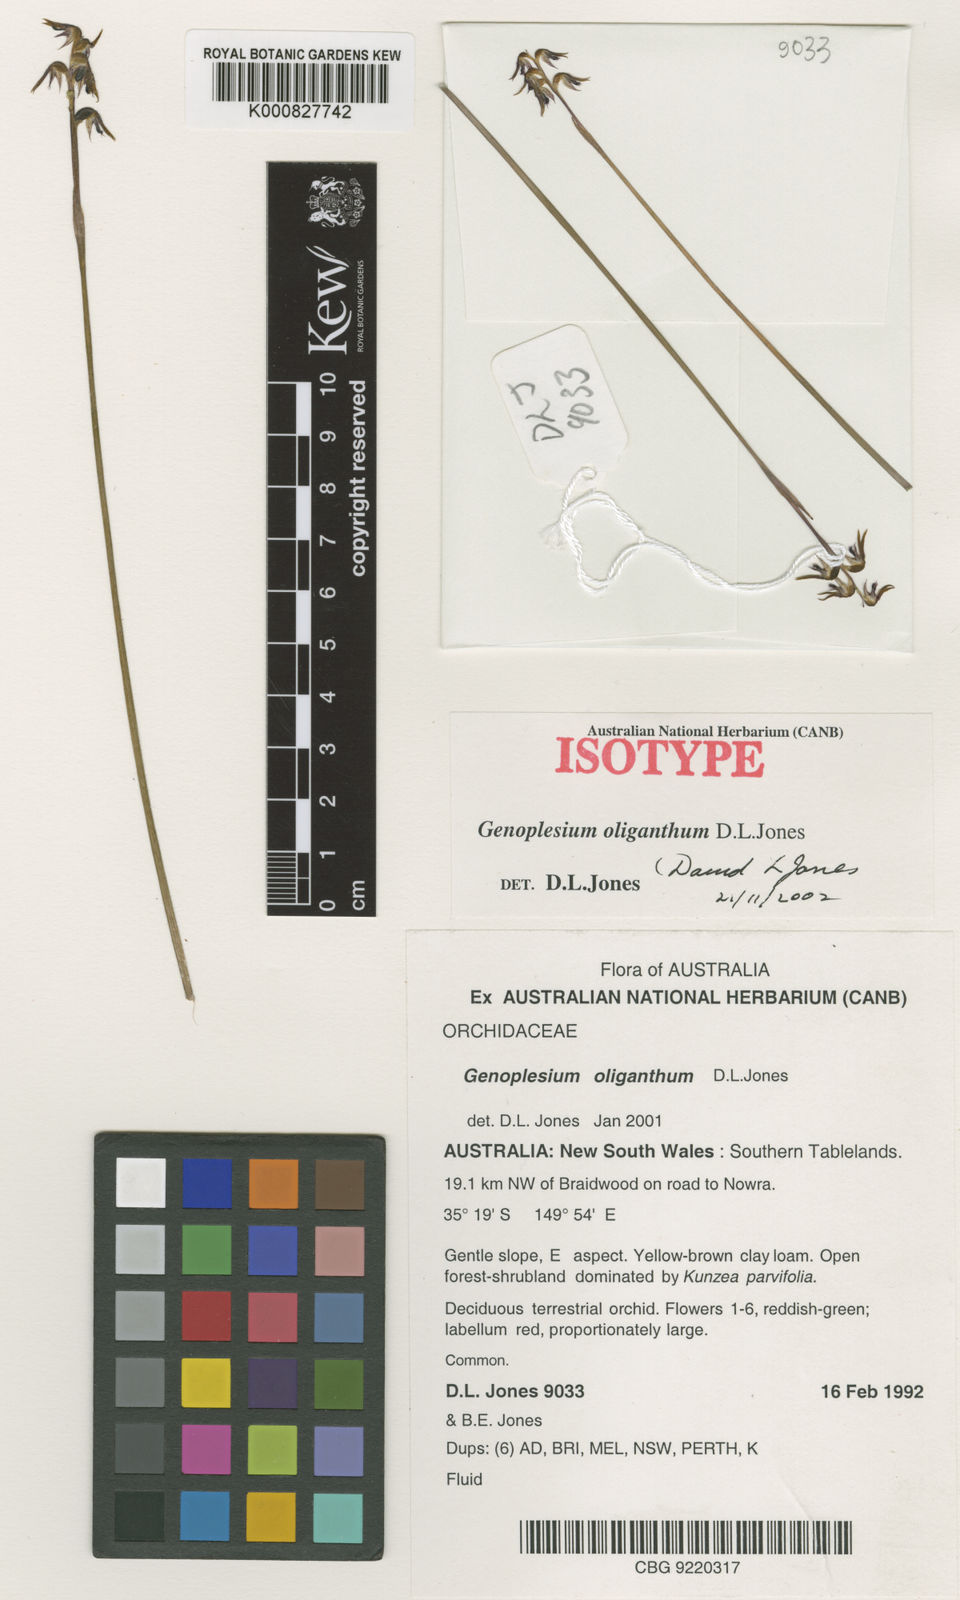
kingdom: Plantae
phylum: Tracheophyta
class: Liliopsida
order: Asparagales
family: Orchidaceae
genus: Genoplesium
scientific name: Genoplesium oliganthum
